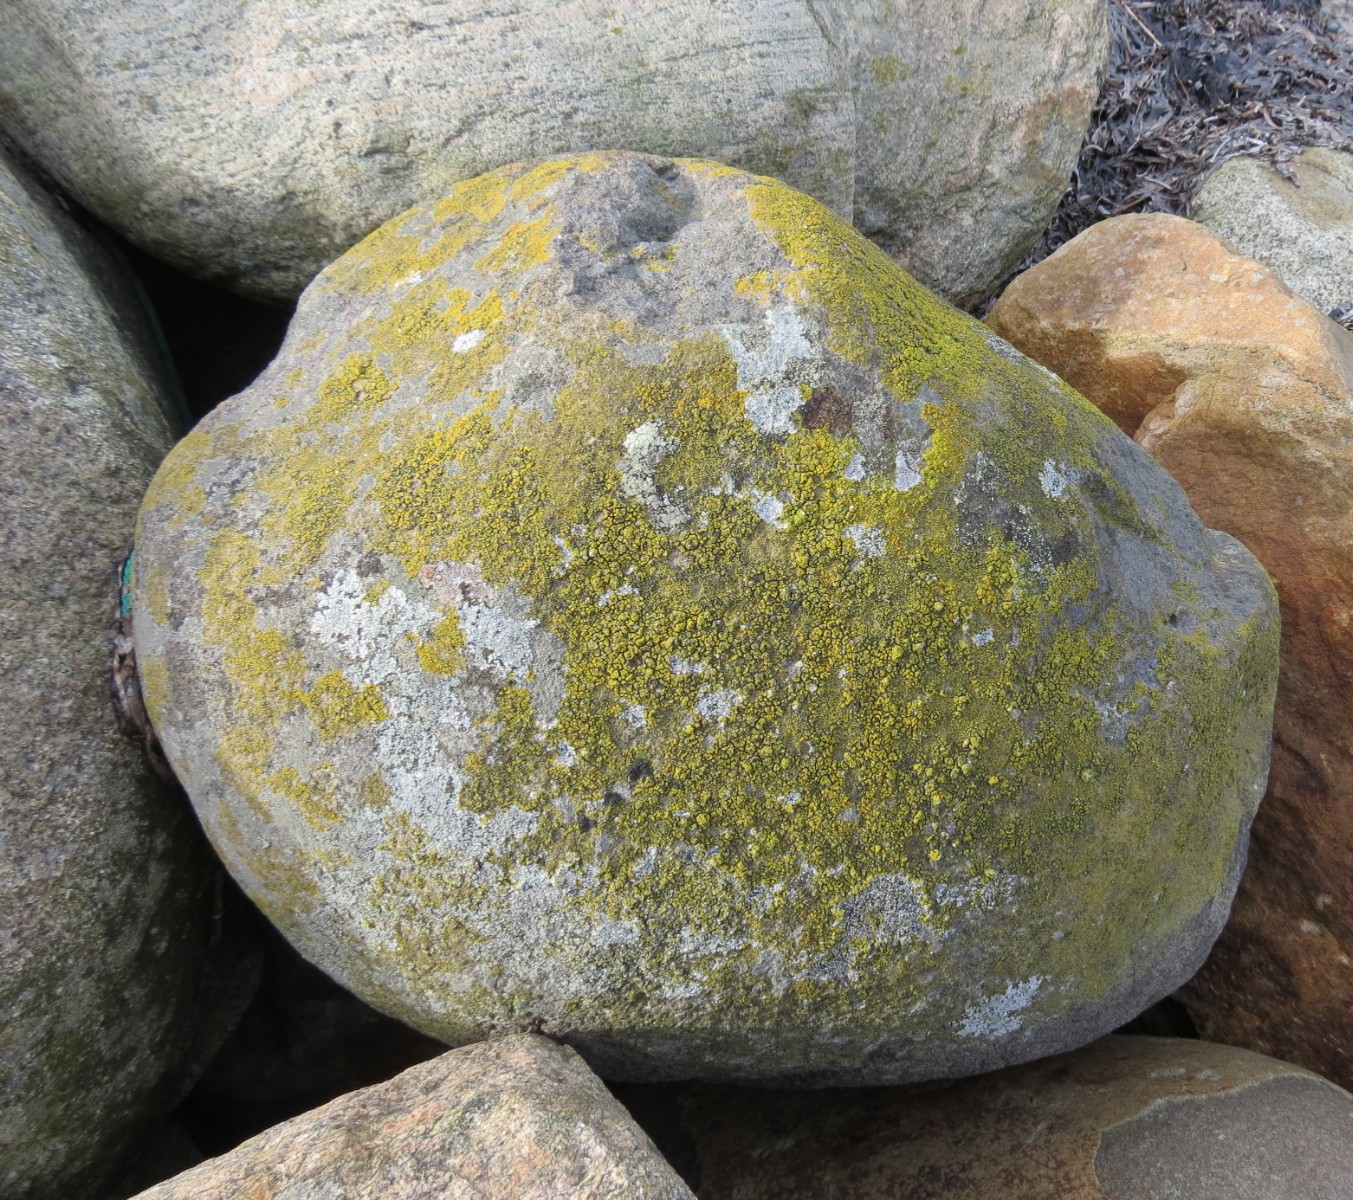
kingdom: Fungi
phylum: Ascomycota
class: Candelariomycetes
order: Candelariales
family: Candelariaceae
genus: Candelariella
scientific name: Candelariella vitellina
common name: almindelig æggeblommelav
